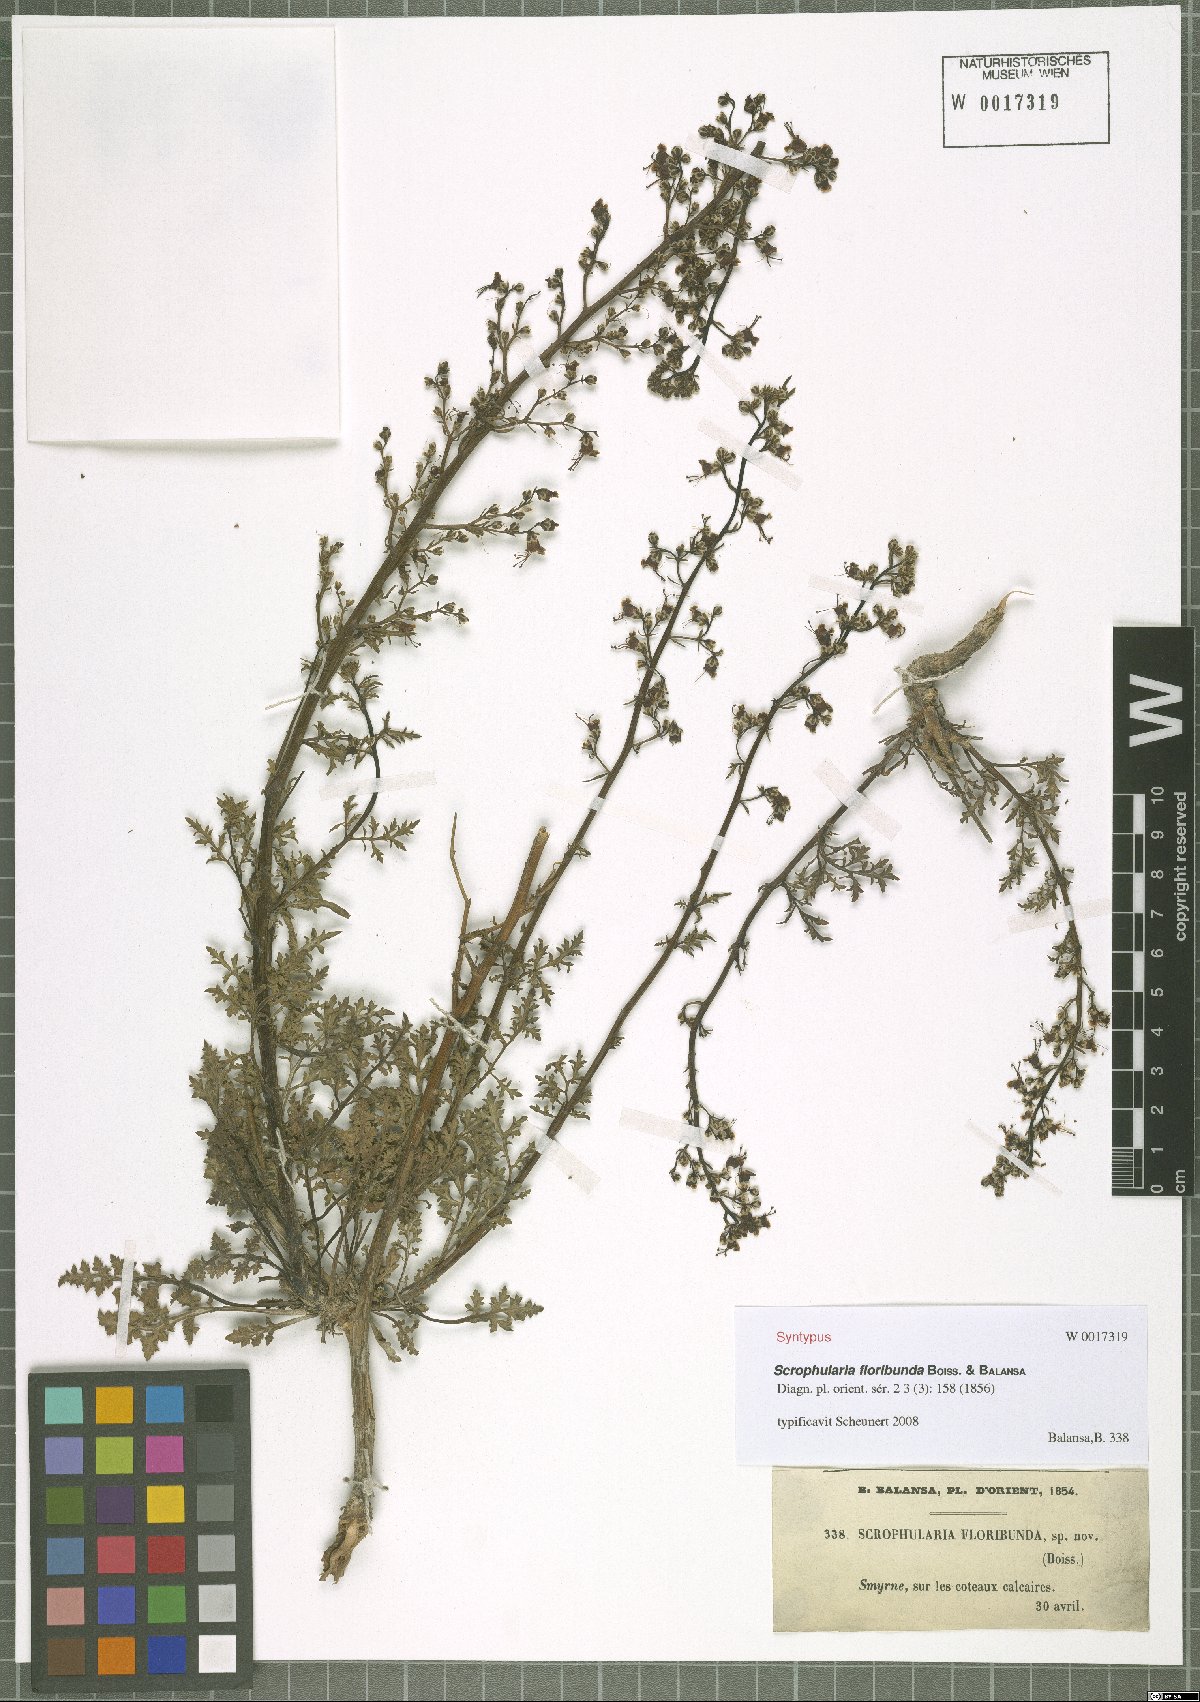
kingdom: Plantae
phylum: Tracheophyta
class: Magnoliopsida
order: Lamiales
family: Scrophulariaceae
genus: Scrophularia
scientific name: Scrophularia floribunda
